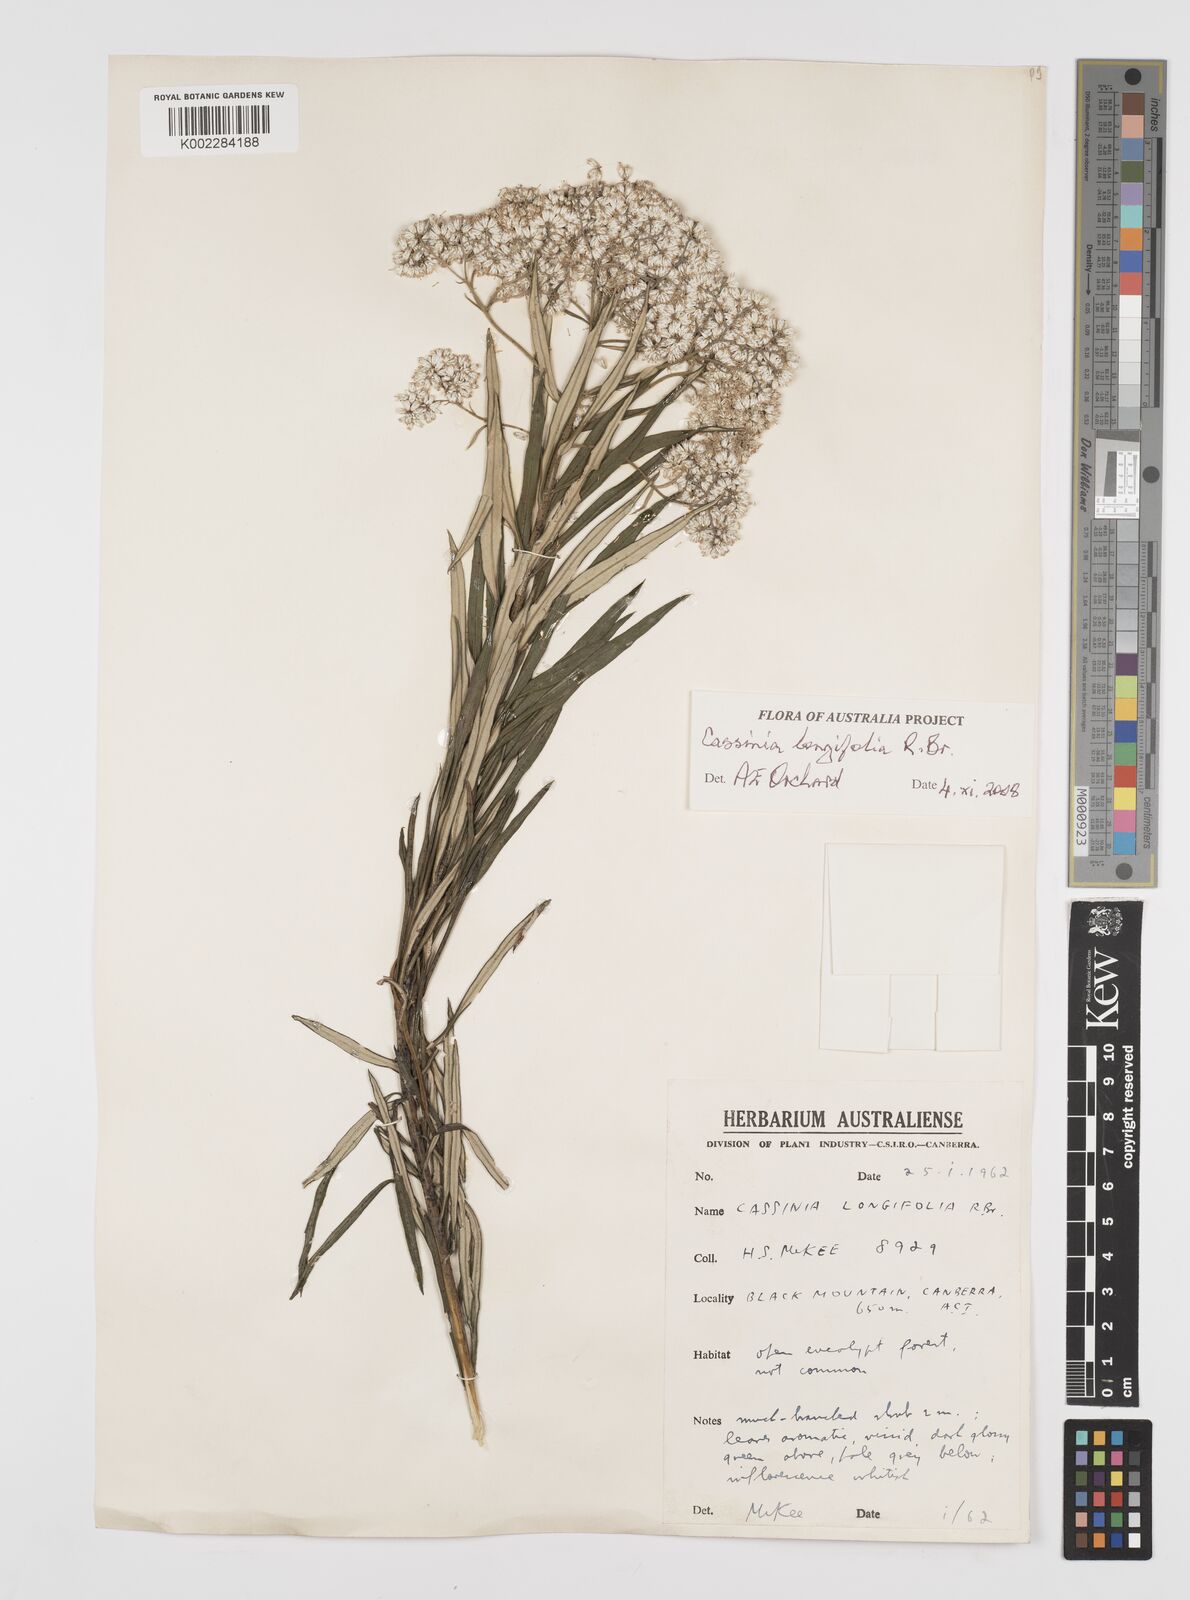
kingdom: Plantae
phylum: Tracheophyta
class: Magnoliopsida
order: Asterales
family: Asteraceae
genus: Cassinia
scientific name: Cassinia longifolia
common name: Longleaf-dogwood
